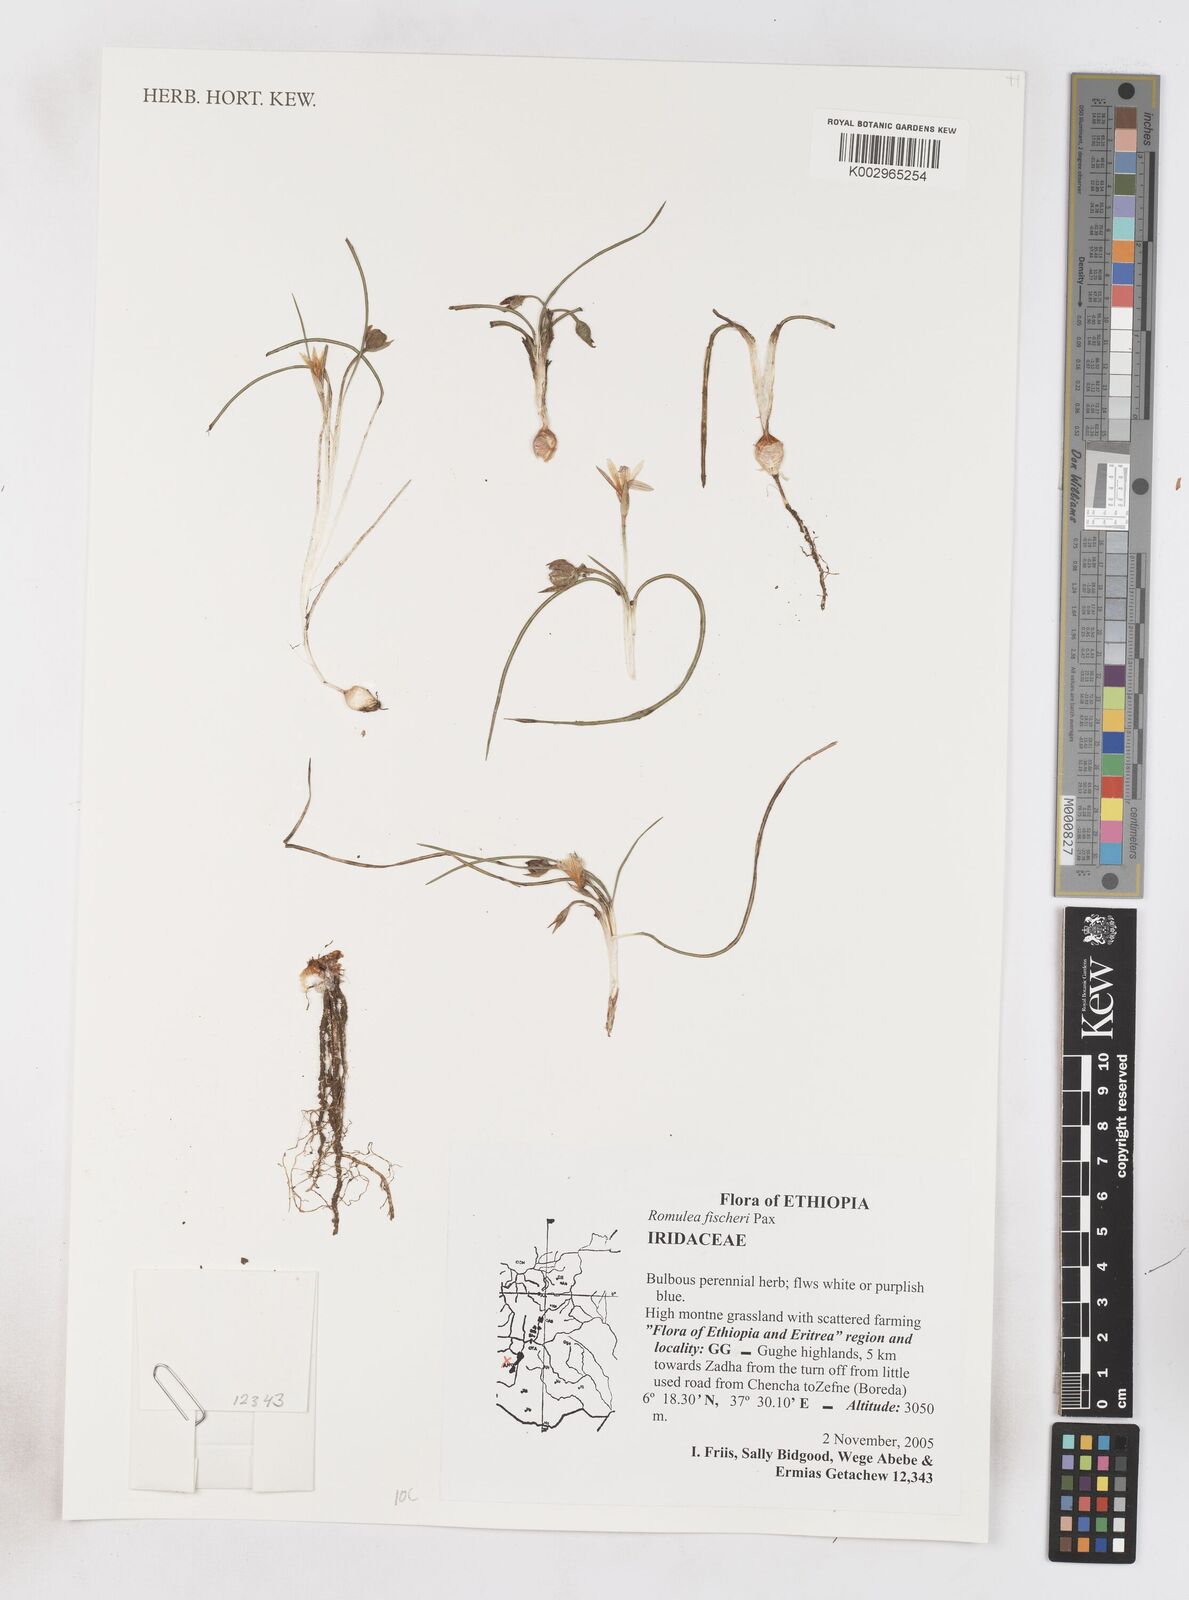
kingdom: Plantae
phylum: Tracheophyta
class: Liliopsida
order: Asparagales
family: Iridaceae
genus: Romulea
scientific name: Romulea fischeri
